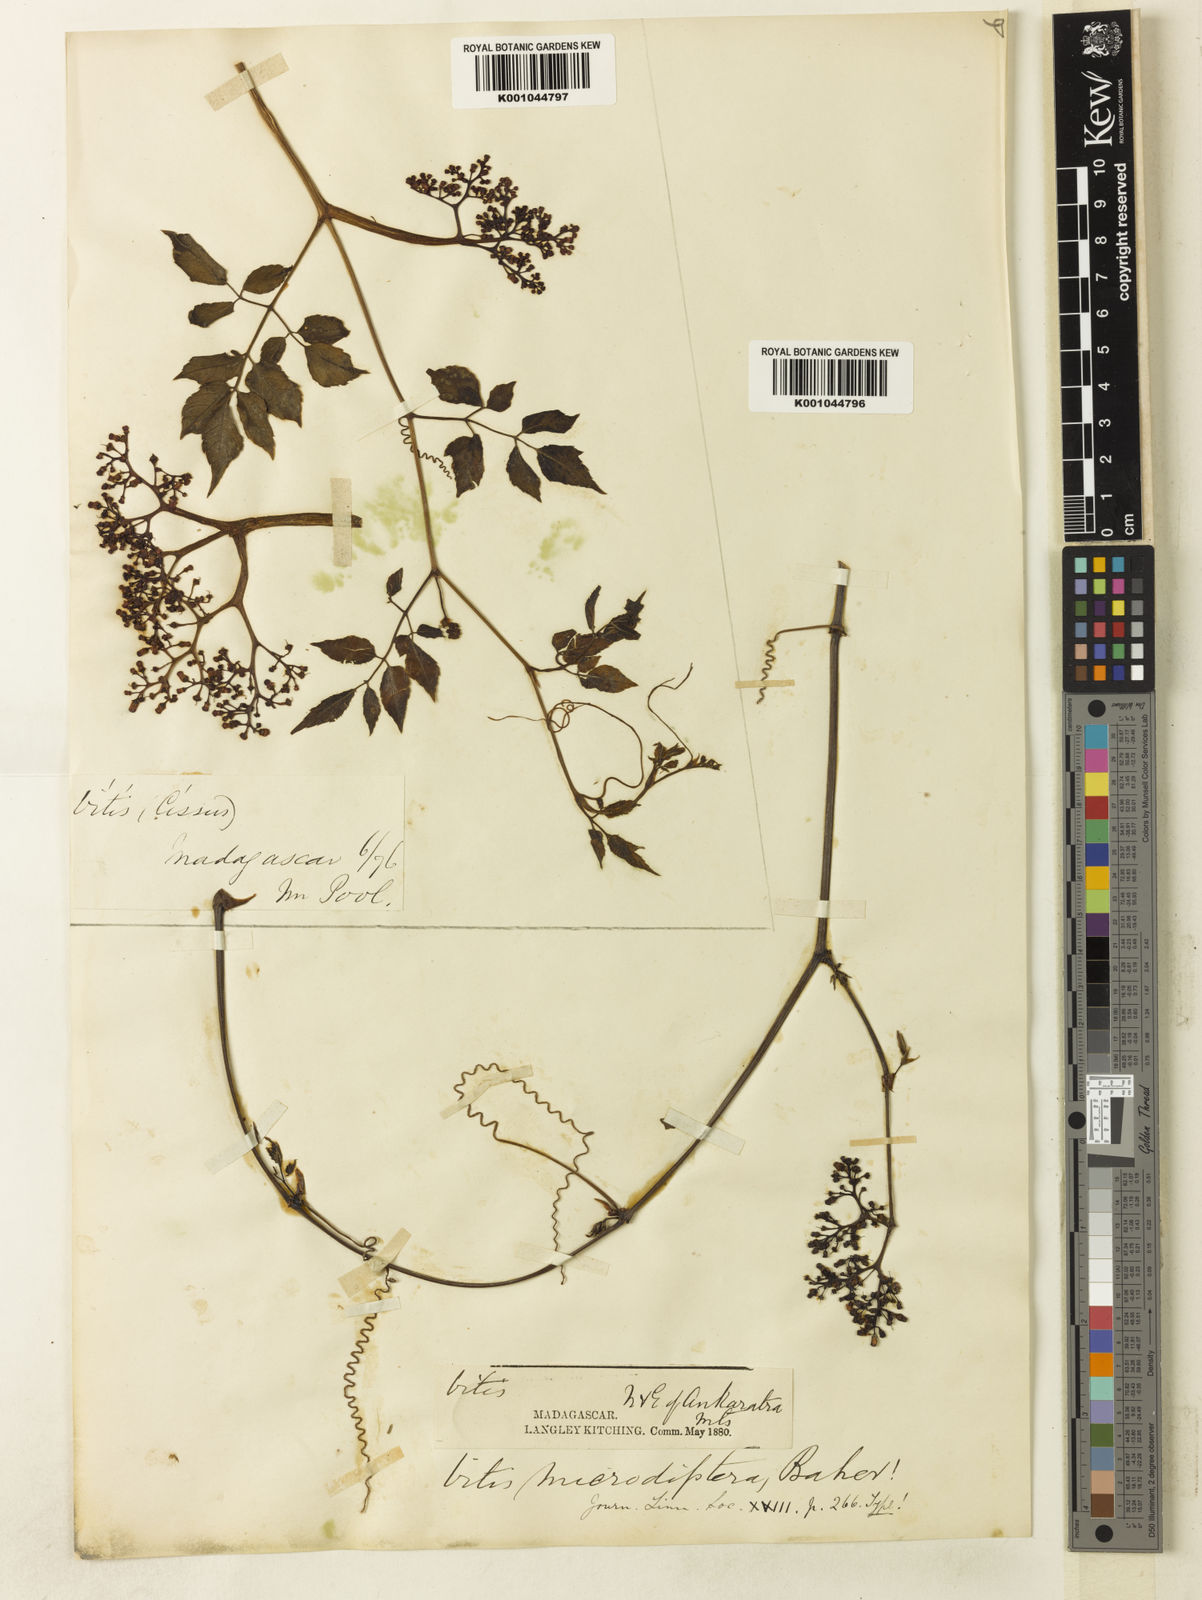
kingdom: Plantae
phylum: Tracheophyta
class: Magnoliopsida
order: Vitales
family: Vitaceae
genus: Cyphostemma
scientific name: Cyphostemma microdipterum
